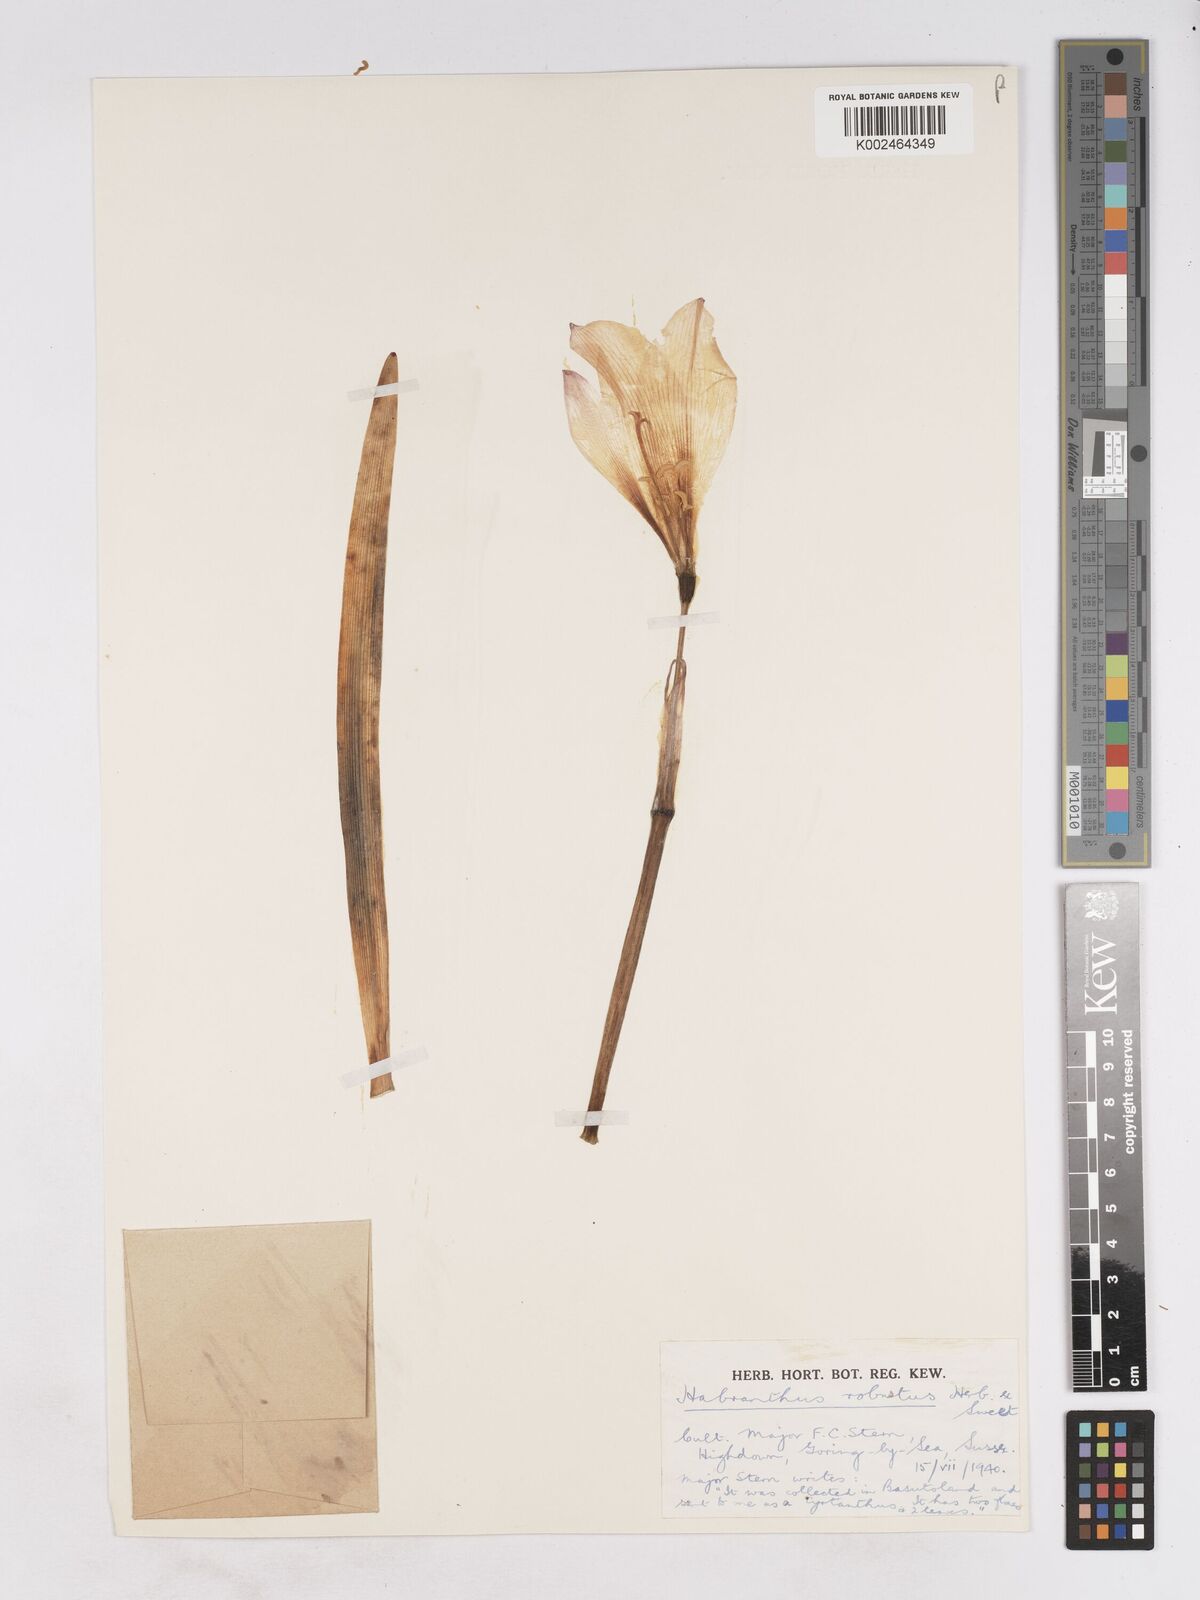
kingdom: Plantae
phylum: Tracheophyta
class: Liliopsida
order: Asparagales
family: Amaryllidaceae
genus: Zephyranthes
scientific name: Zephyranthes robusta
